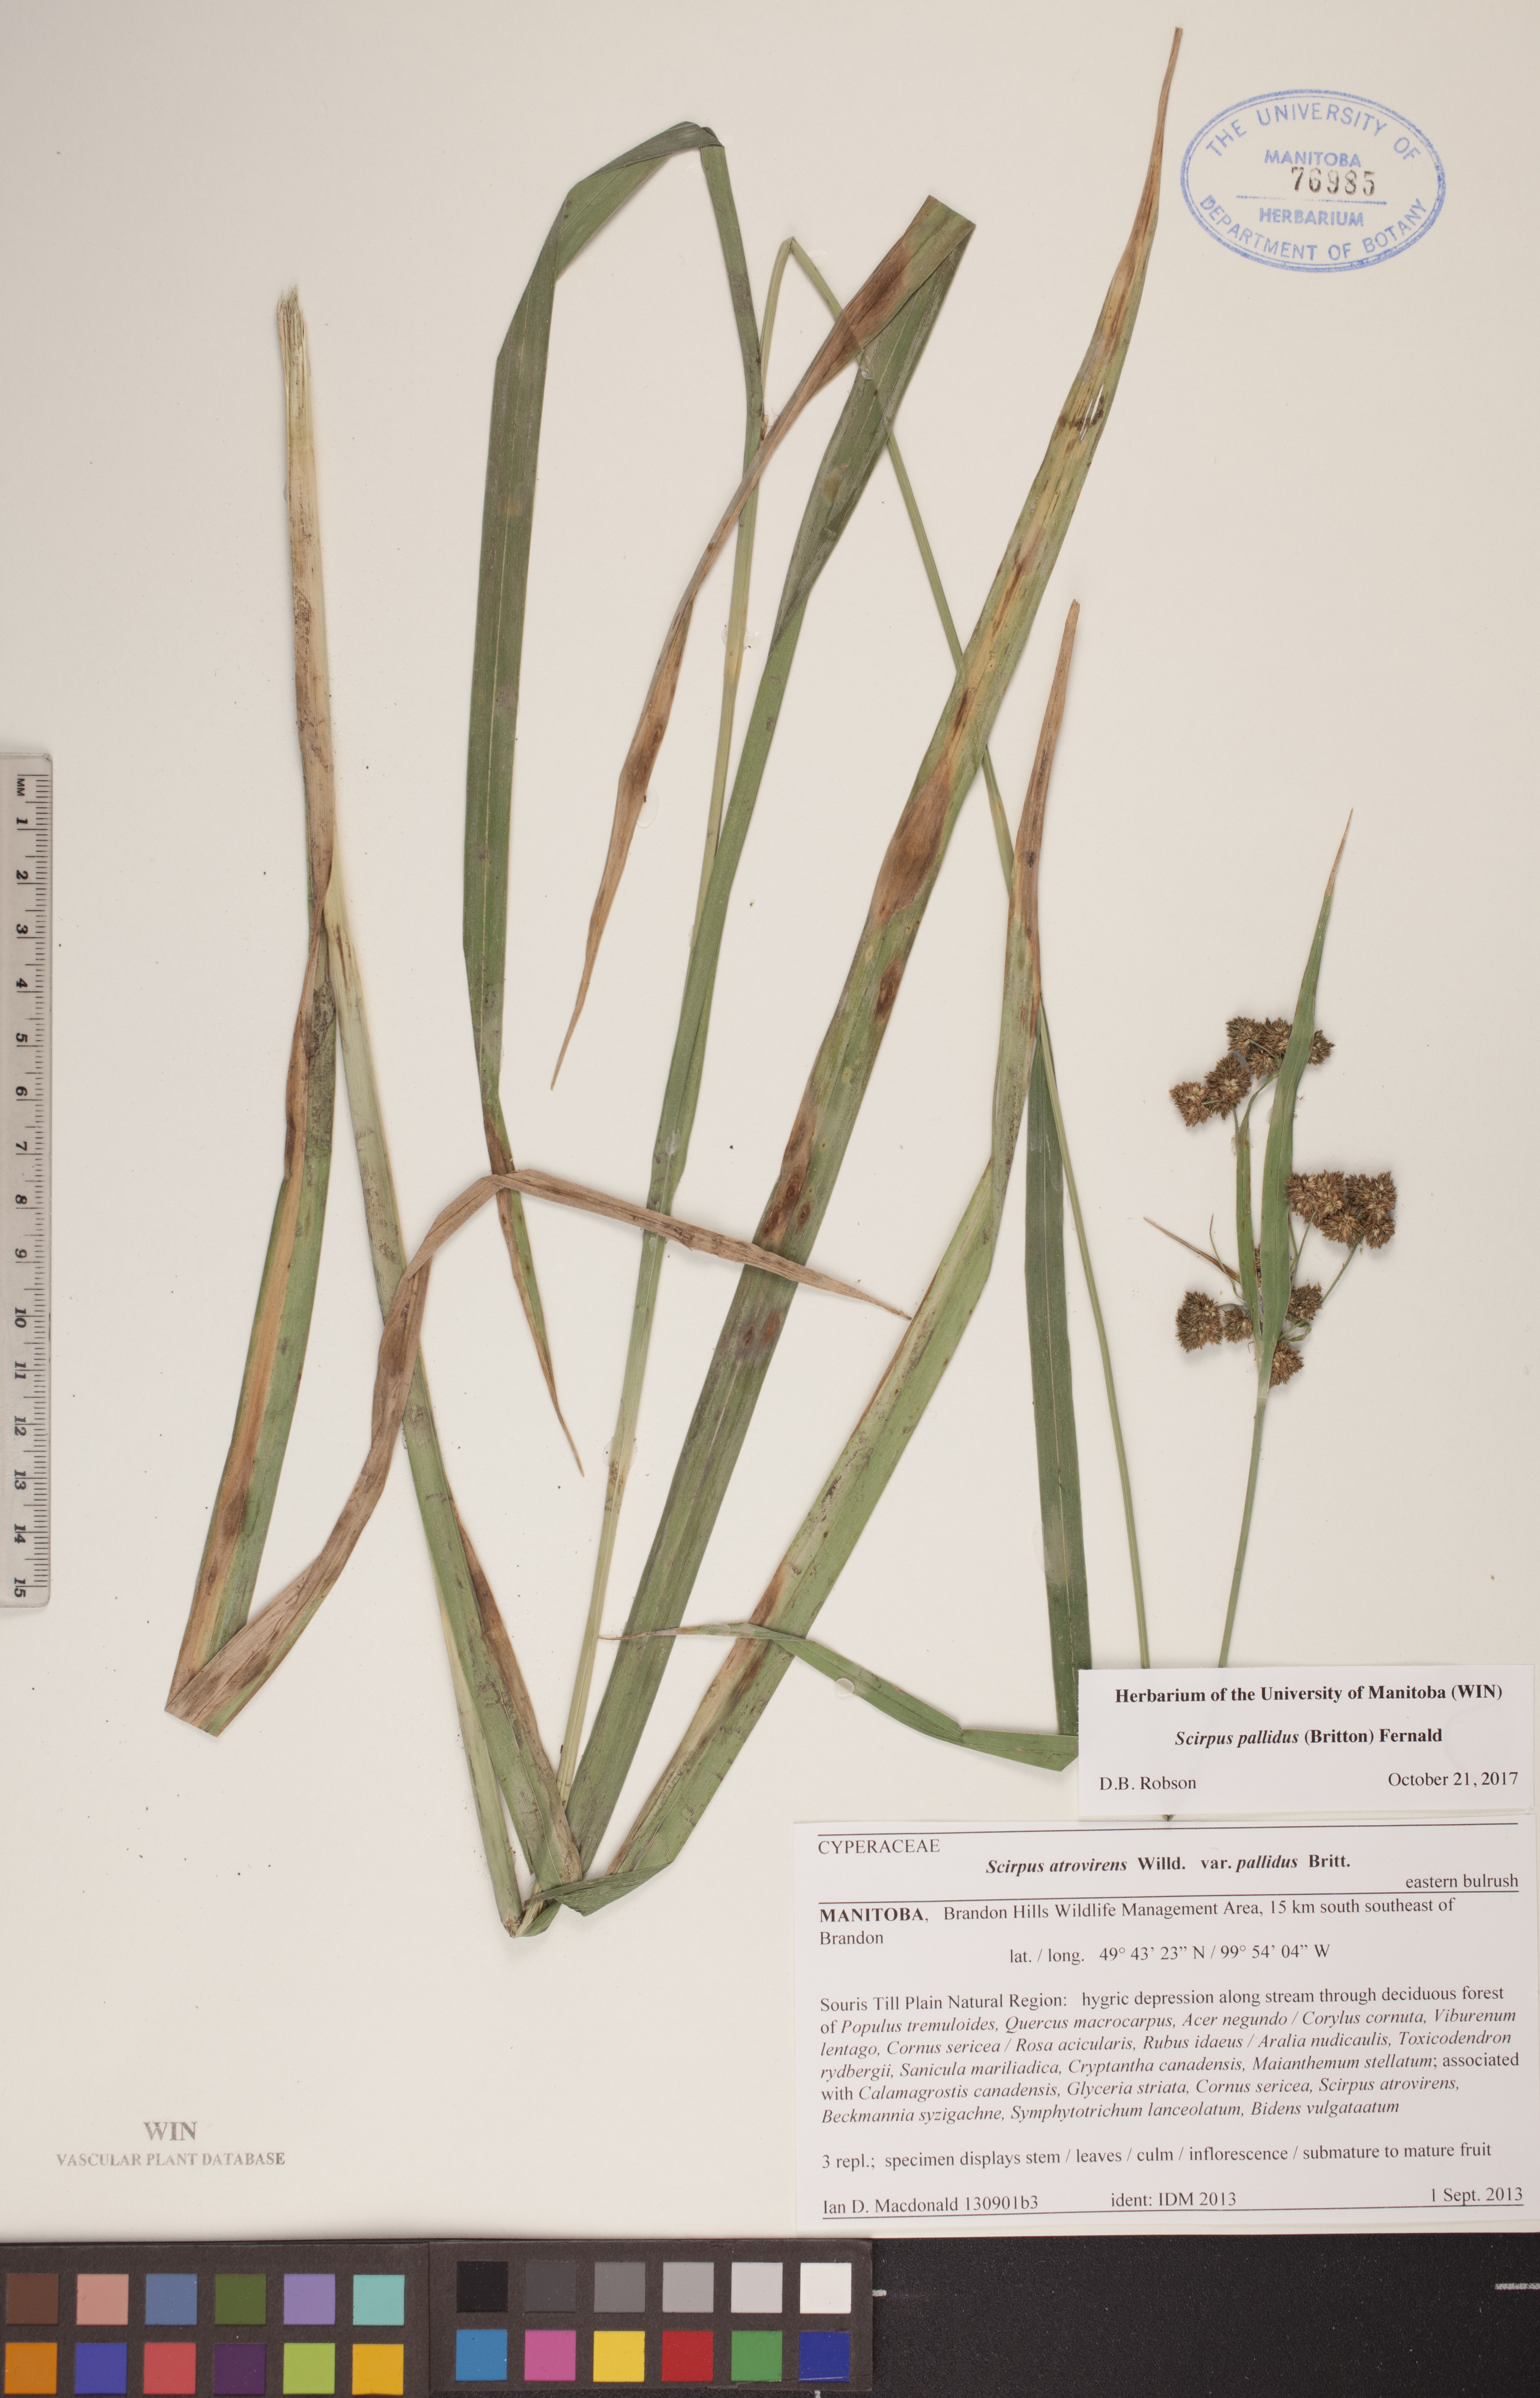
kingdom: Plantae
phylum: Tracheophyta
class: Liliopsida
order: Poales
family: Cyperaceae
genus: Scirpus
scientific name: Scirpus pallidus
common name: Cloaked bulrush
